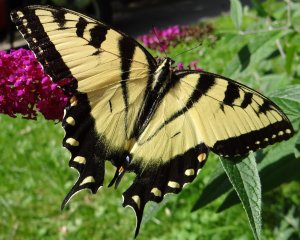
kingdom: Animalia
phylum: Arthropoda
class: Insecta
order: Lepidoptera
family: Papilionidae
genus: Pterourus
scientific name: Pterourus glaucus
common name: Eastern Tiger Swallowtail
